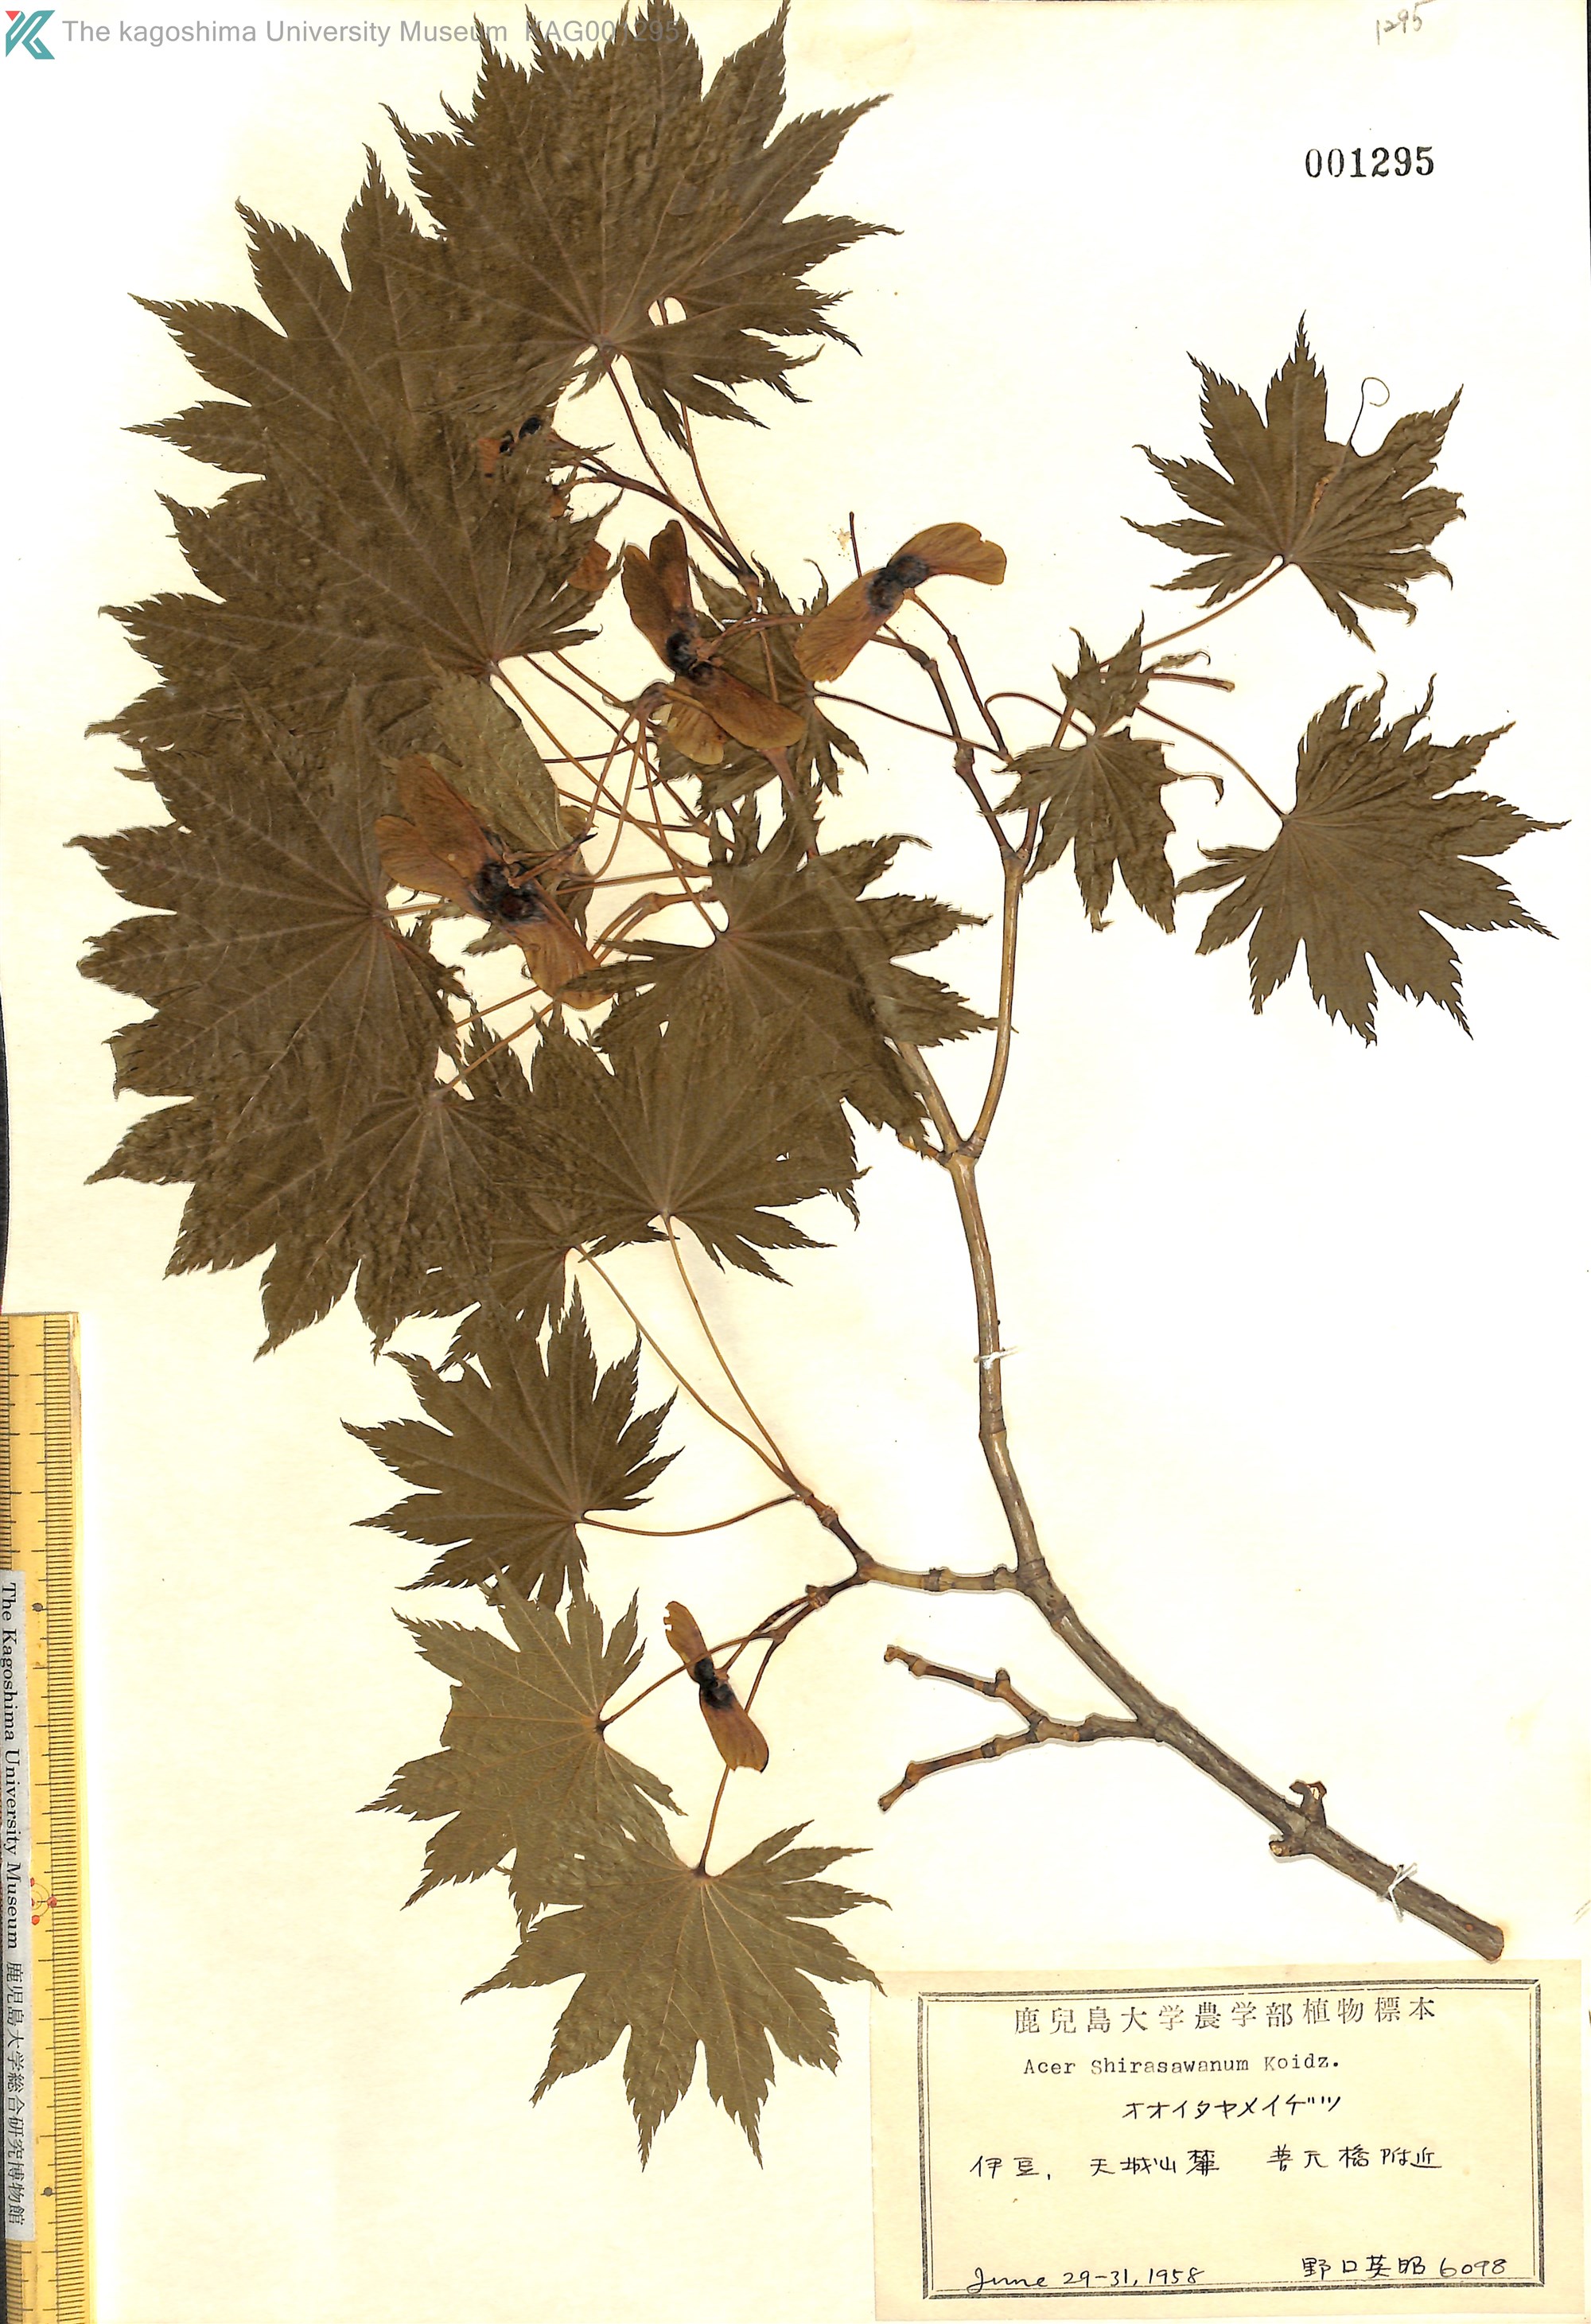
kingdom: Plantae
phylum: Tracheophyta
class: Magnoliopsida
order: Sapindales
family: Sapindaceae
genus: Acer
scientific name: Acer shirasawanum
